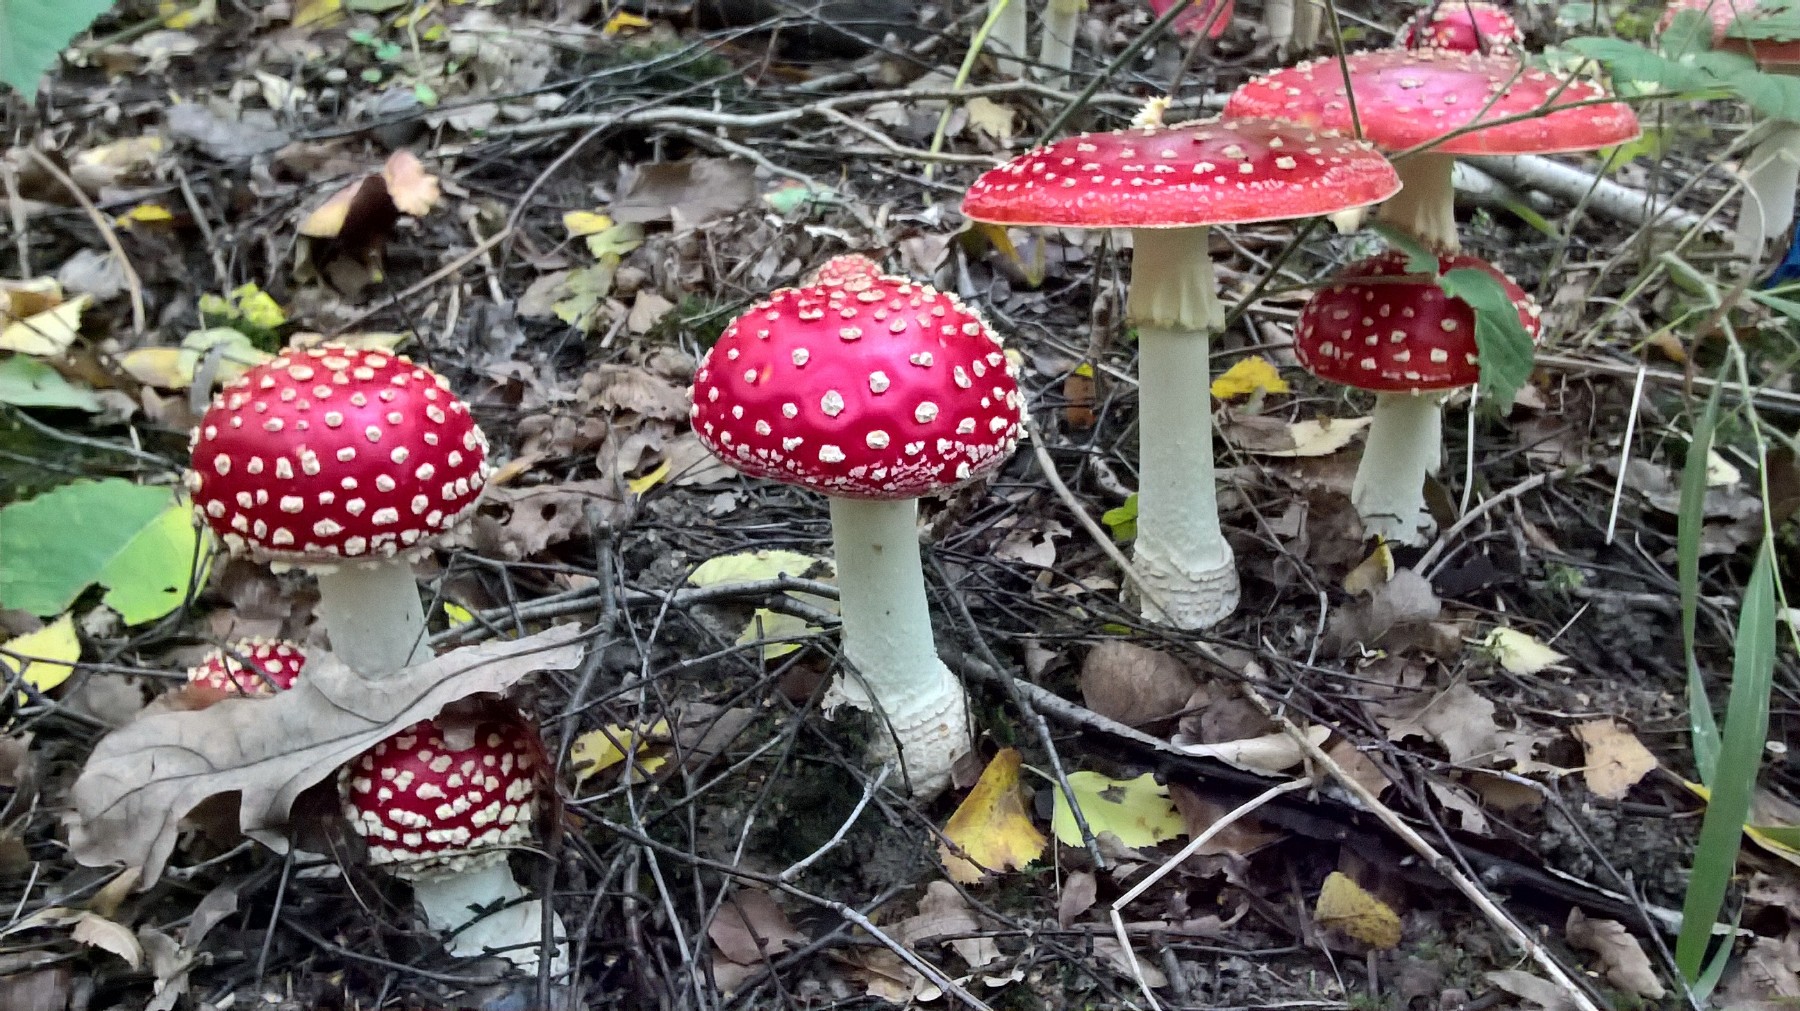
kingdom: Fungi
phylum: Basidiomycota
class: Agaricomycetes
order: Agaricales
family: Amanitaceae
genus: Amanita
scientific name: Amanita muscaria
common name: rød fluesvamp
